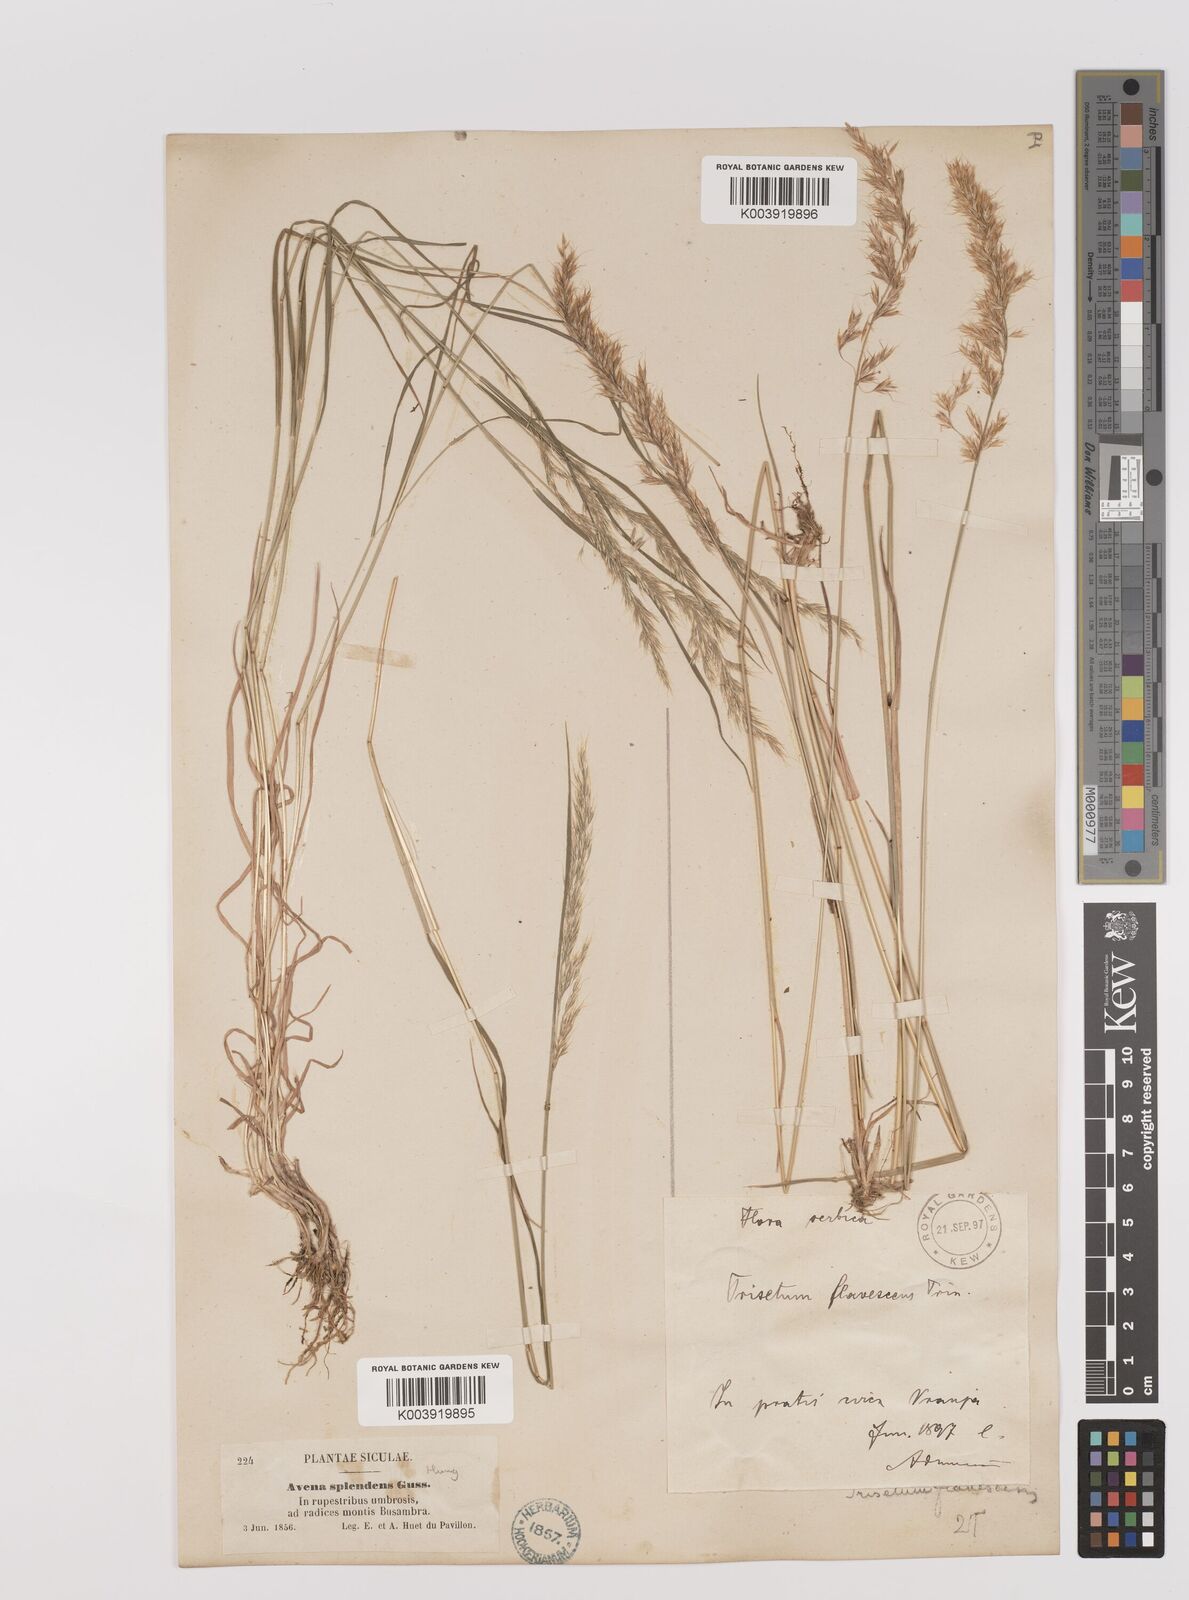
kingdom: Plantae
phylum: Tracheophyta
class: Liliopsida
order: Poales
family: Poaceae
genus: Trisetum
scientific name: Trisetum flavescens
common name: Yellow oat-grass
